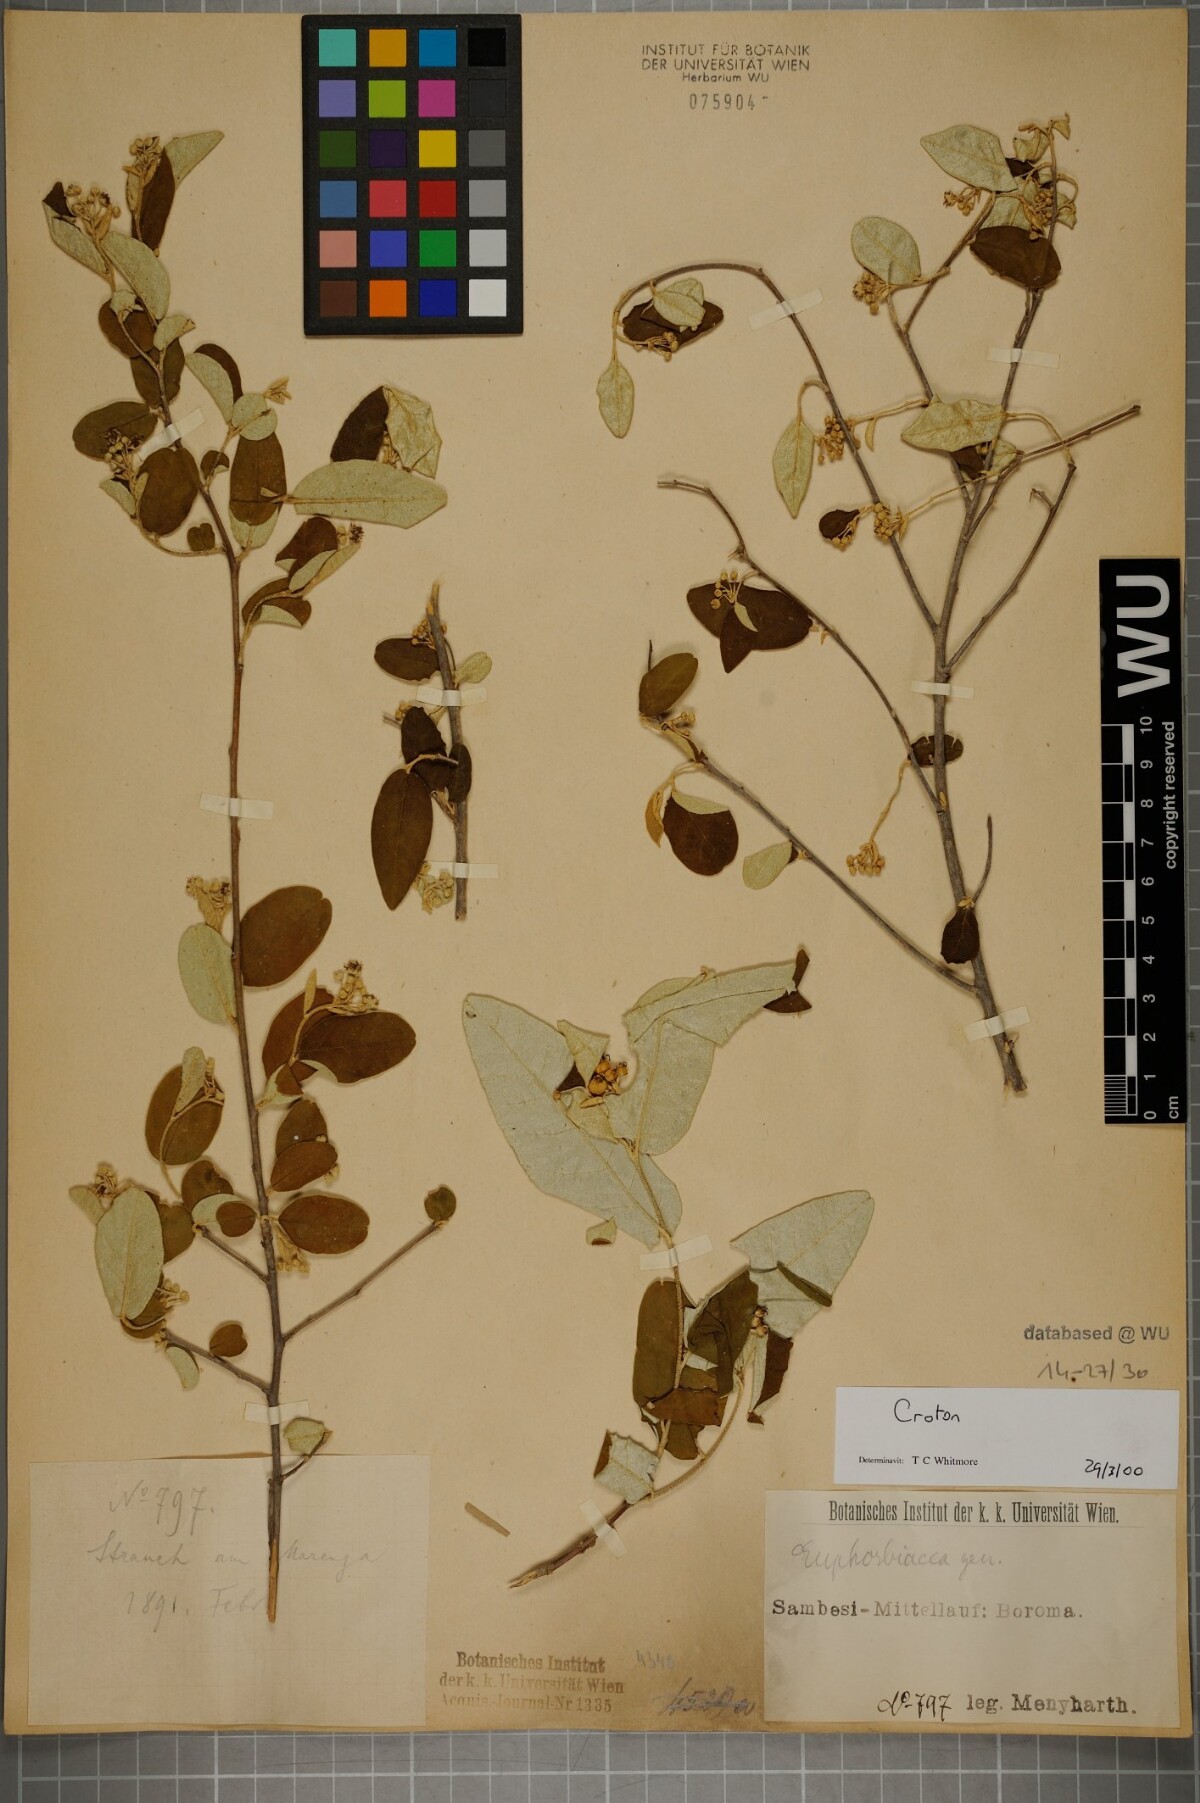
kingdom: Plantae
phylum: Tracheophyta
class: Magnoliopsida
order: Malpighiales
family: Euphorbiaceae
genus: Croton
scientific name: Croton
